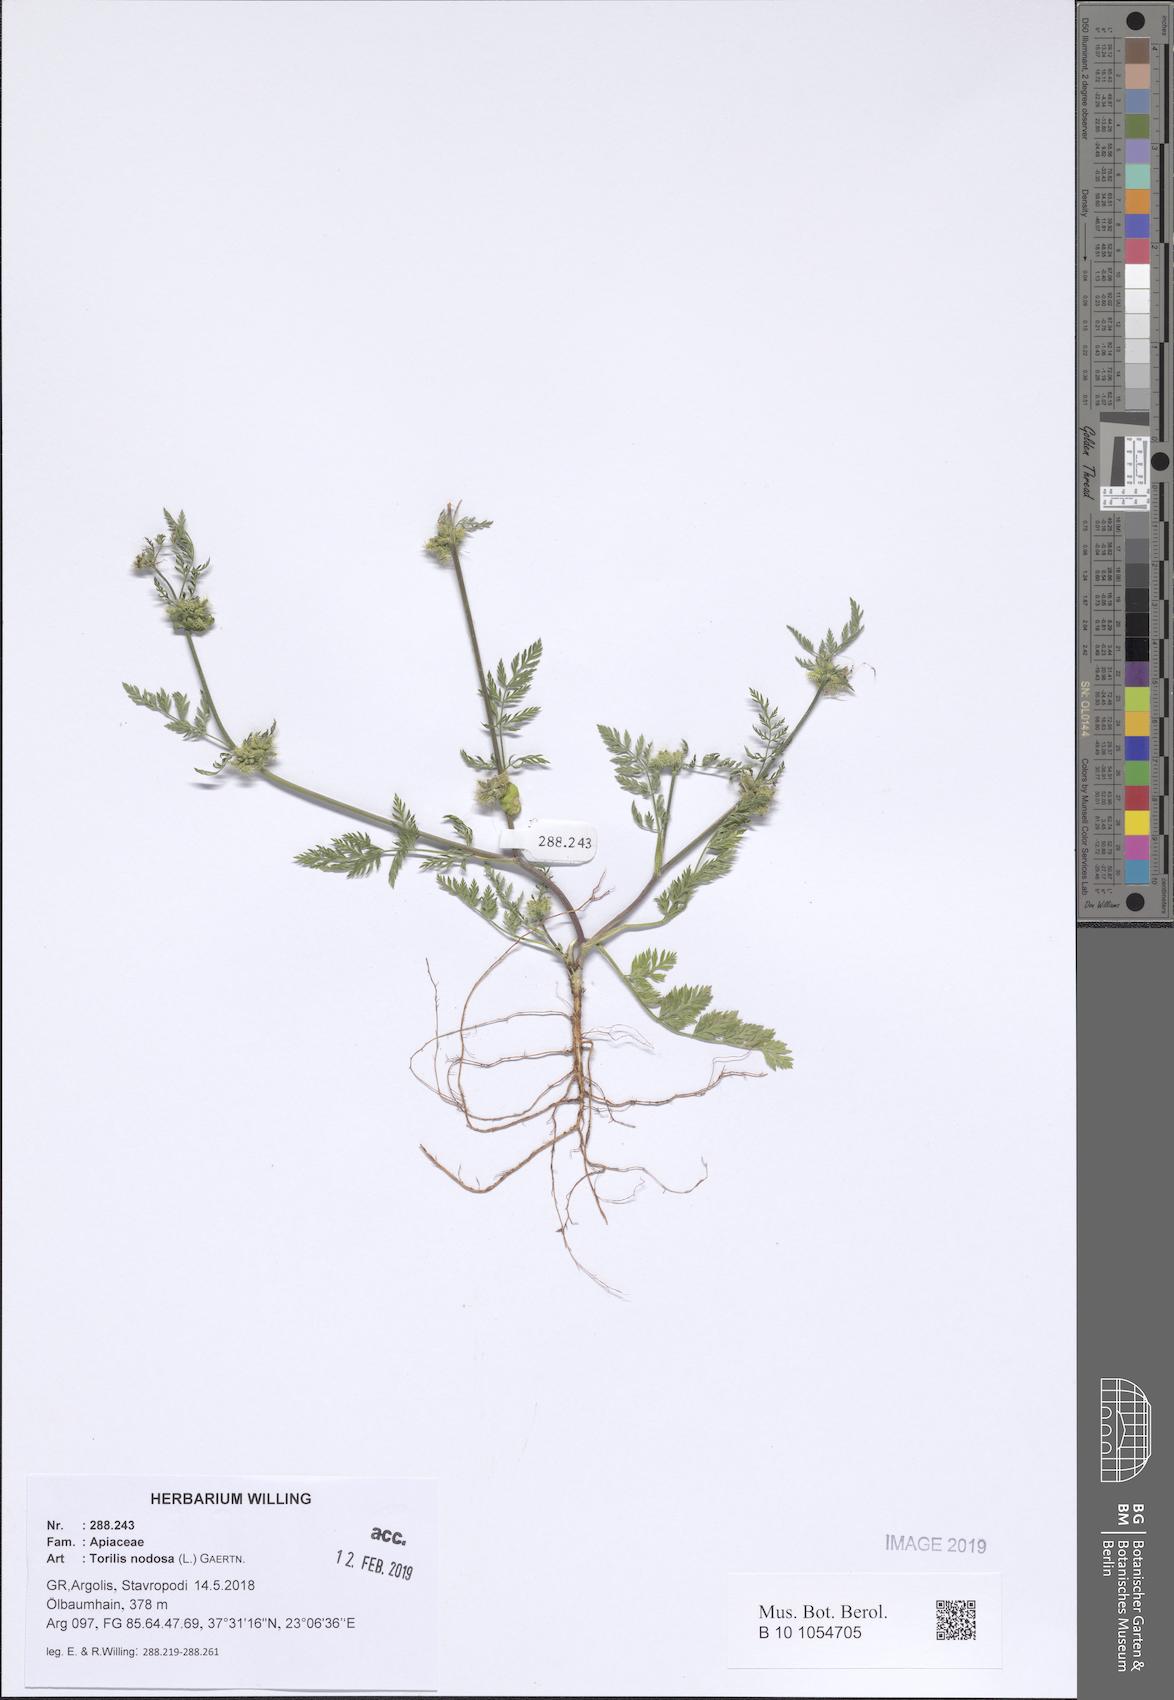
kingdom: Plantae
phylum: Tracheophyta
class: Magnoliopsida
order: Apiales
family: Apiaceae
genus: Torilis
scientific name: Torilis nodosa
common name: Knotted hedge-parsley
